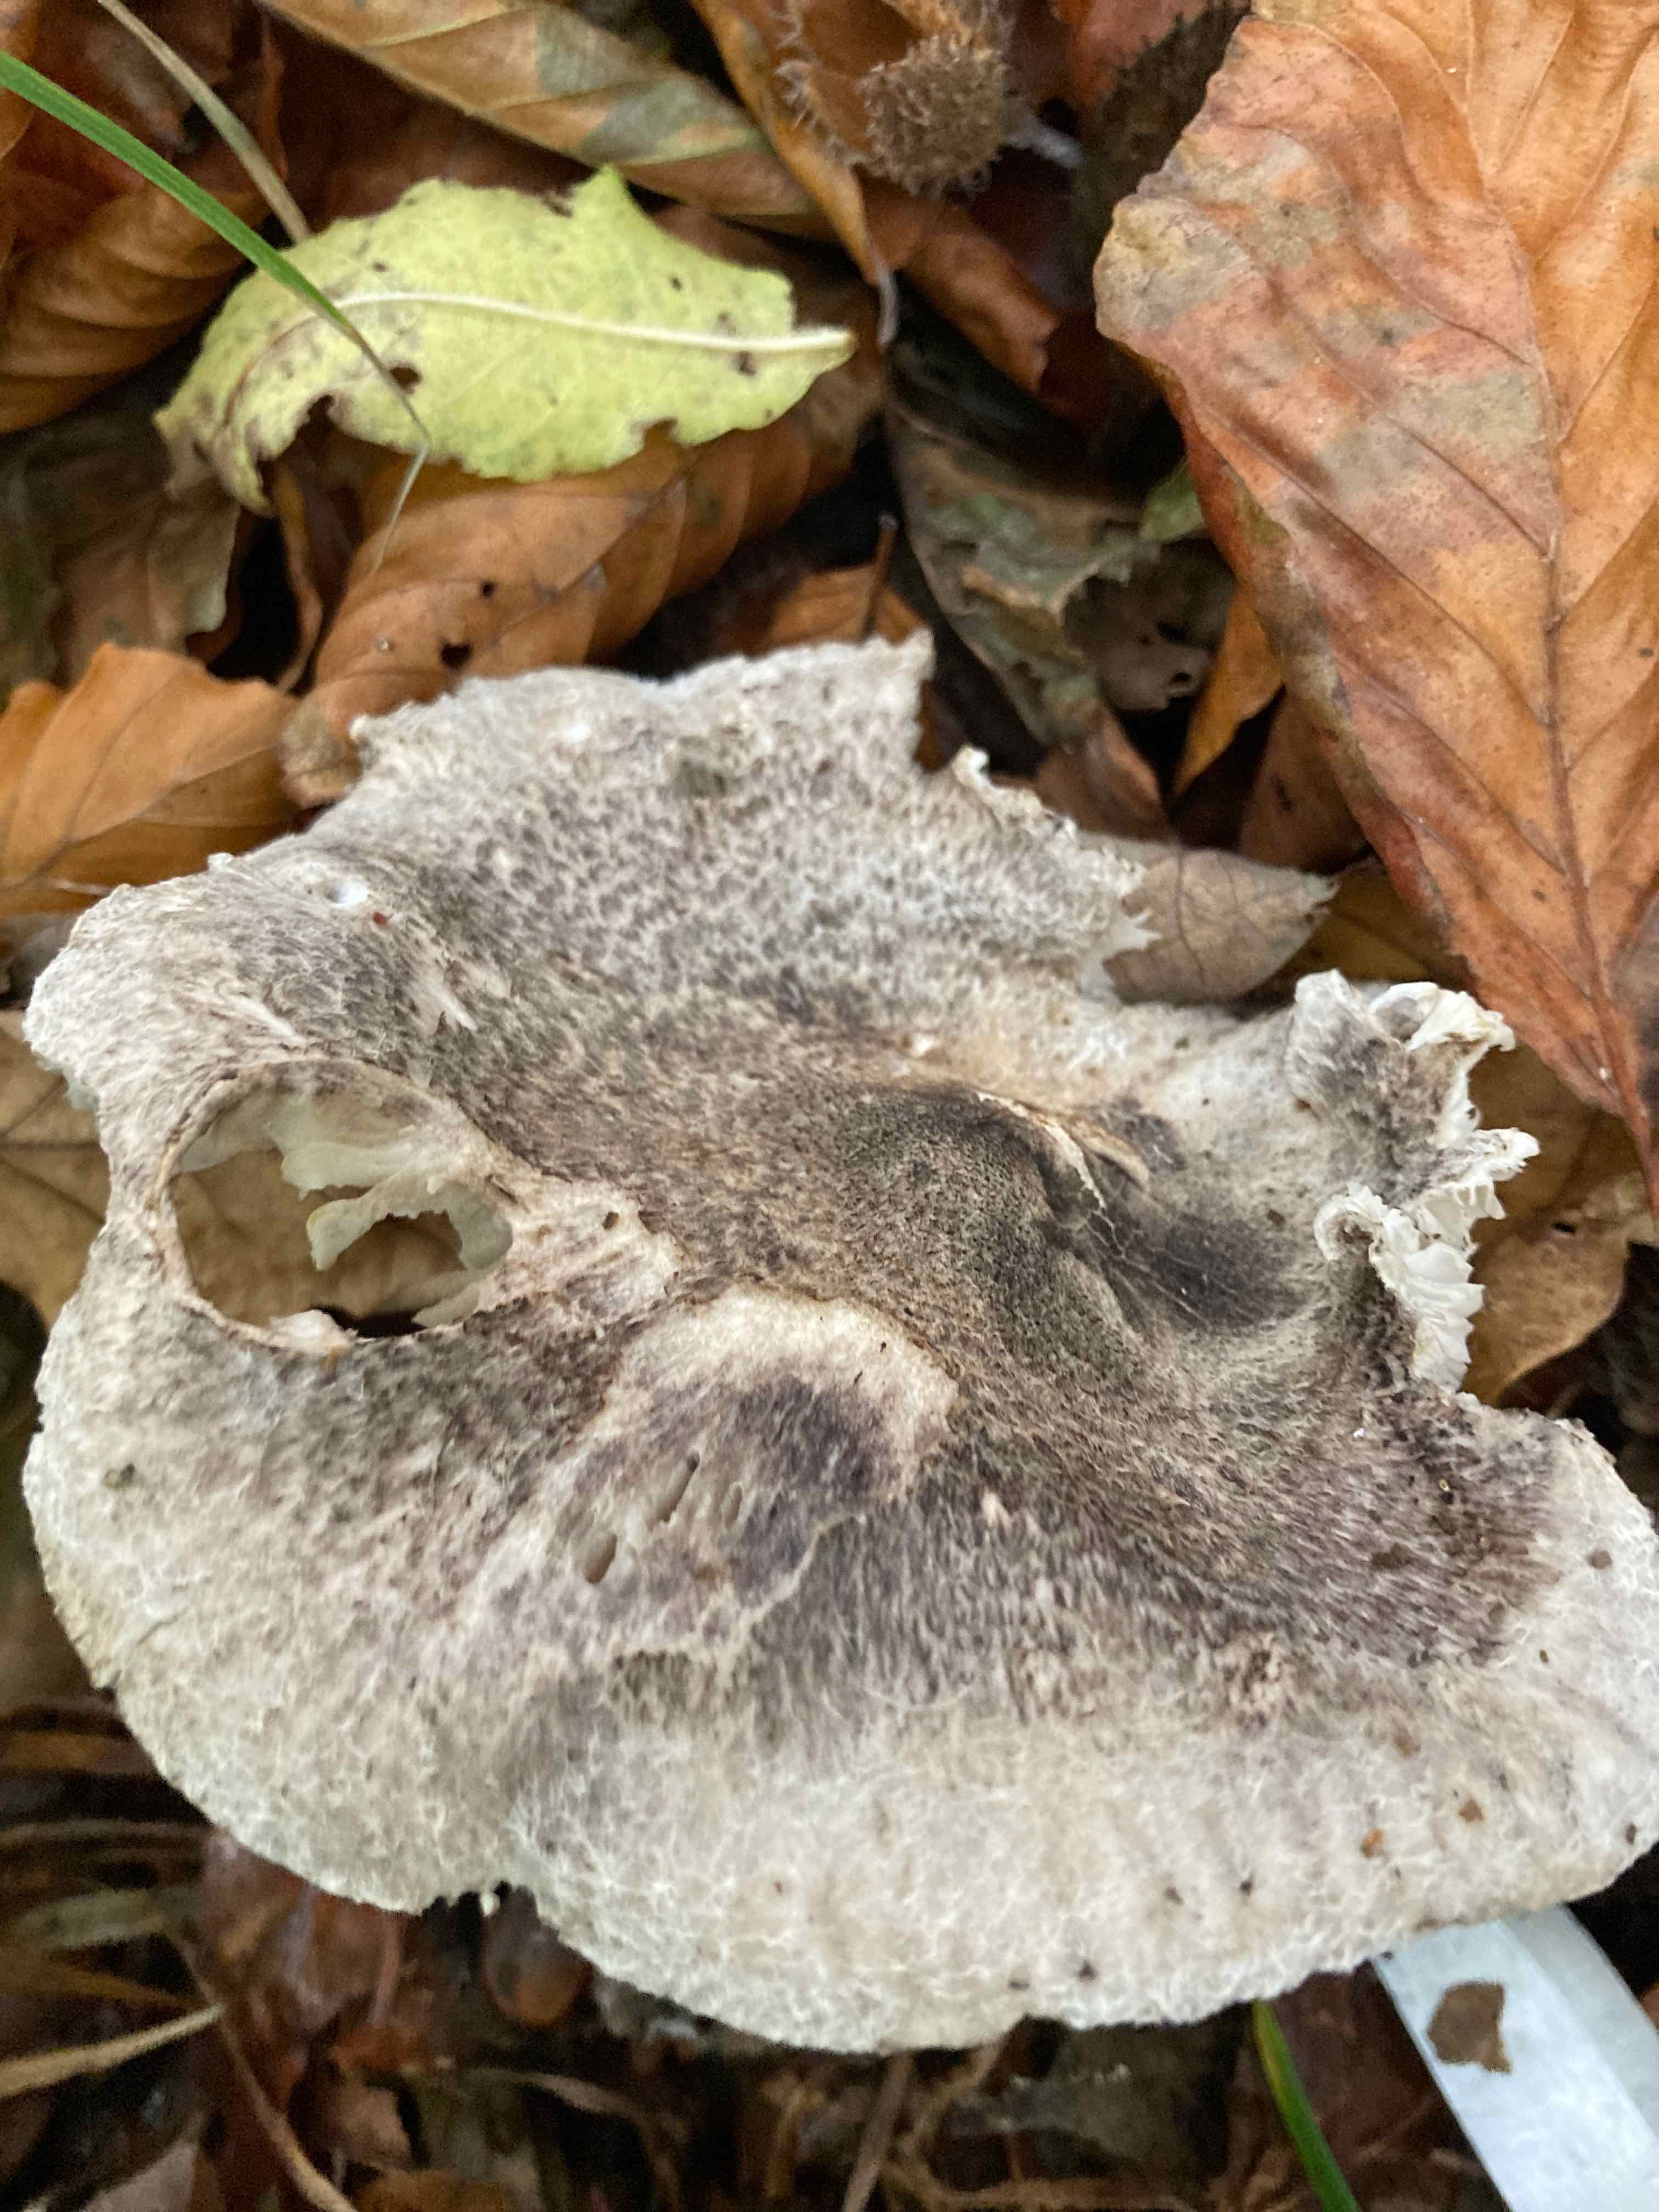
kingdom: Fungi
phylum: Basidiomycota
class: Agaricomycetes
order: Agaricales
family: Tricholomataceae
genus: Tricholoma
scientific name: Tricholoma atrosquamosum
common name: sortskællet ridderhat
